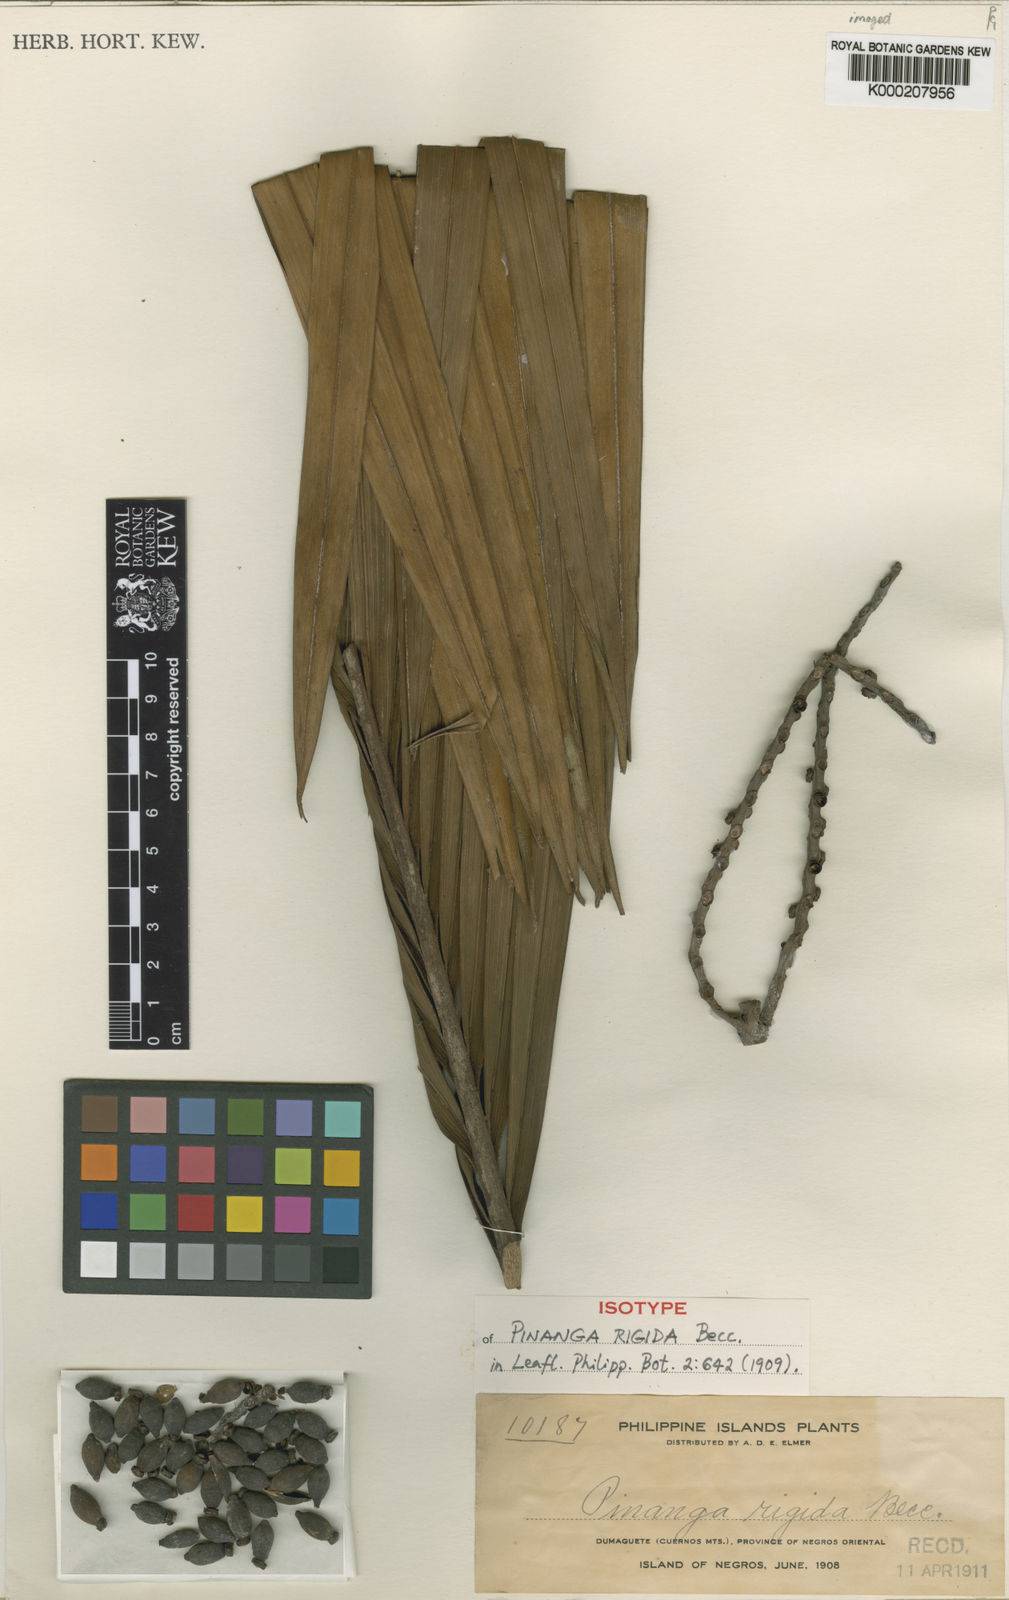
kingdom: Plantae
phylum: Tracheophyta
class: Liliopsida
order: Arecales
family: Arecaceae
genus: Pinanga
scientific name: Pinanga rigida
